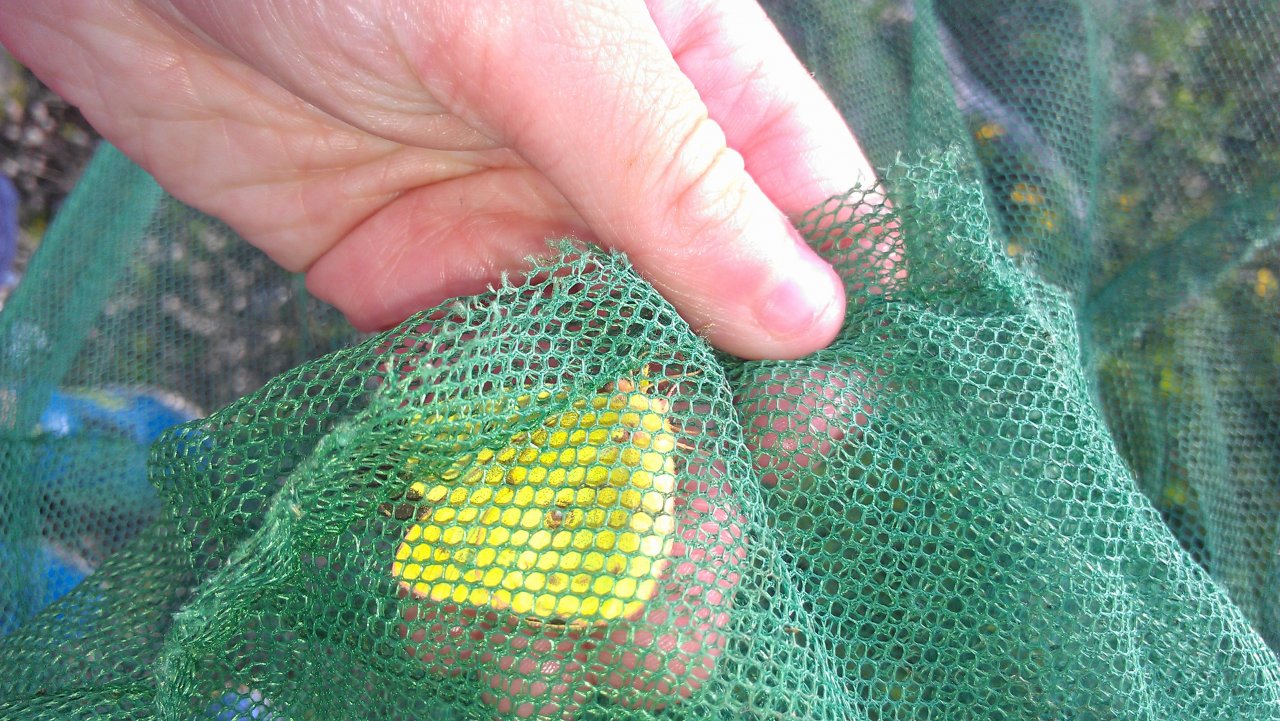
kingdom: Animalia
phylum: Arthropoda
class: Insecta
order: Lepidoptera
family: Pieridae
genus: Colias
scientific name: Colias philodice
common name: Clouded Sulphur
